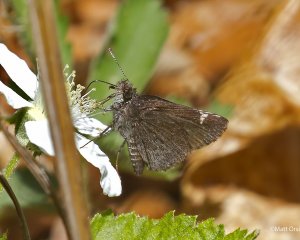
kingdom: Animalia
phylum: Arthropoda
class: Insecta
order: Lepidoptera
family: Hesperiidae
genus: Mastor
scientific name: Mastor vialis
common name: Common Roadside-Skipper
